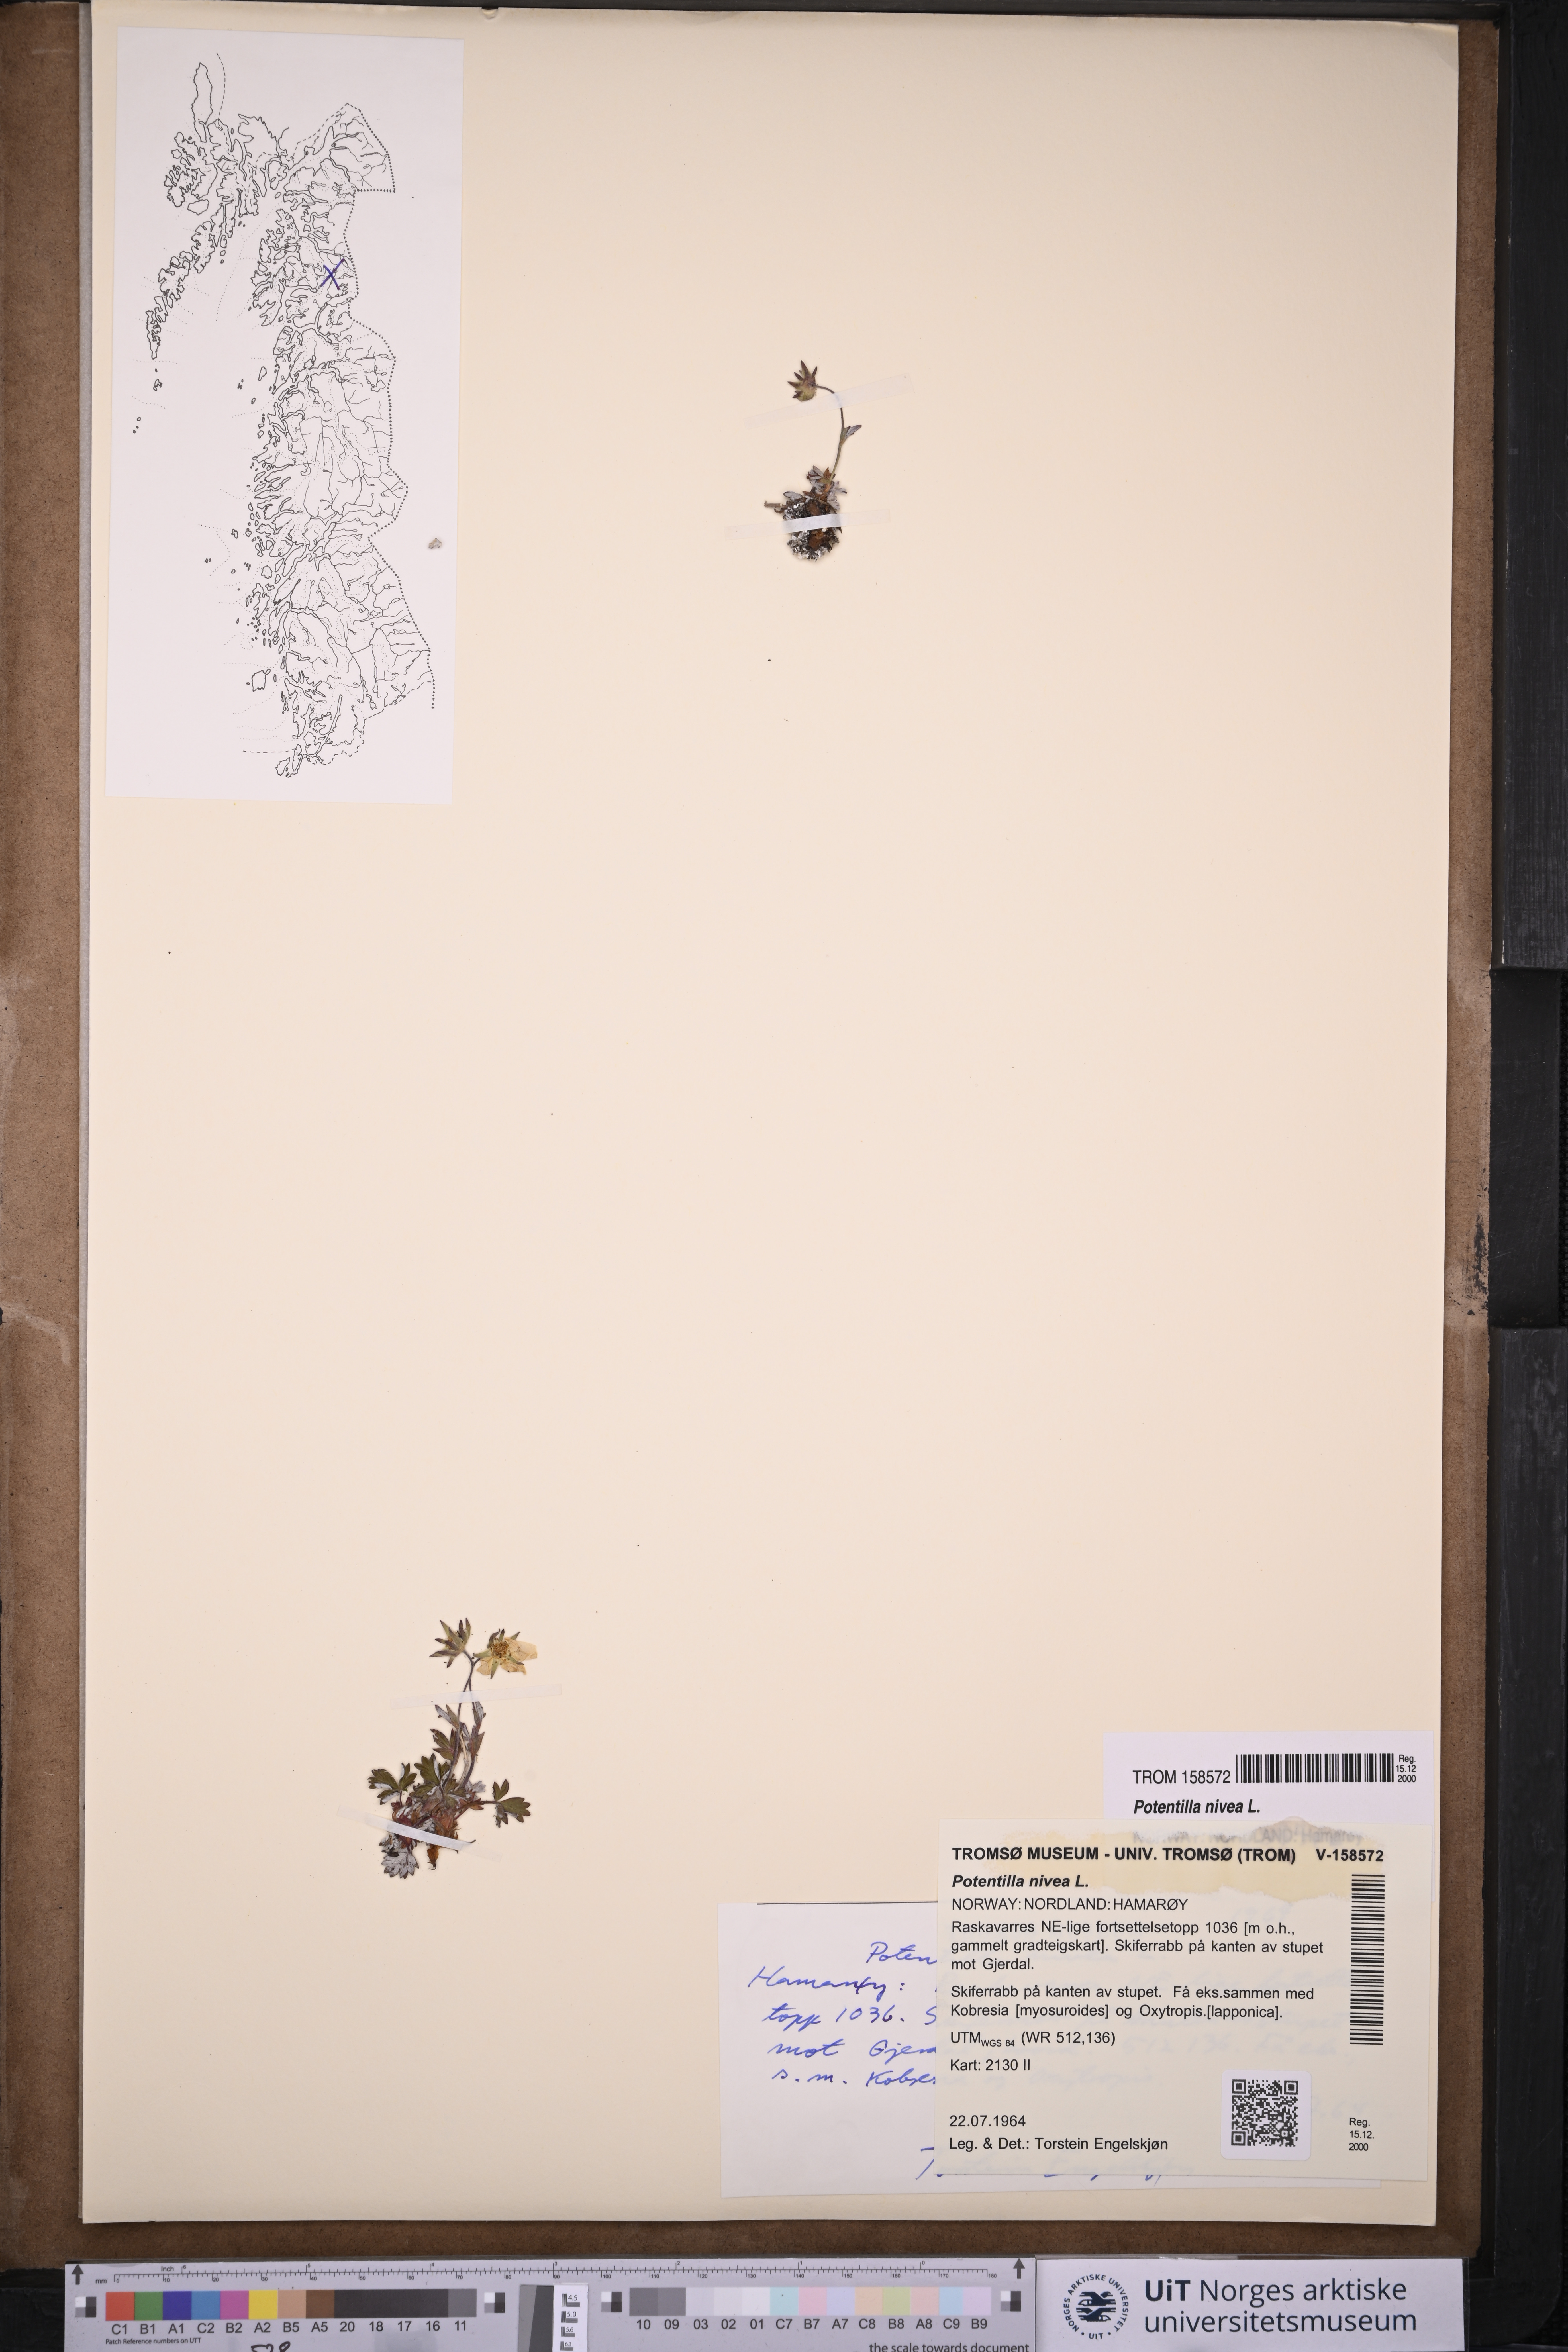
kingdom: Plantae
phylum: Tracheophyta
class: Magnoliopsida
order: Rosales
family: Rosaceae
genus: Potentilla
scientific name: Potentilla arenosa
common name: Bluff cinquefoil
